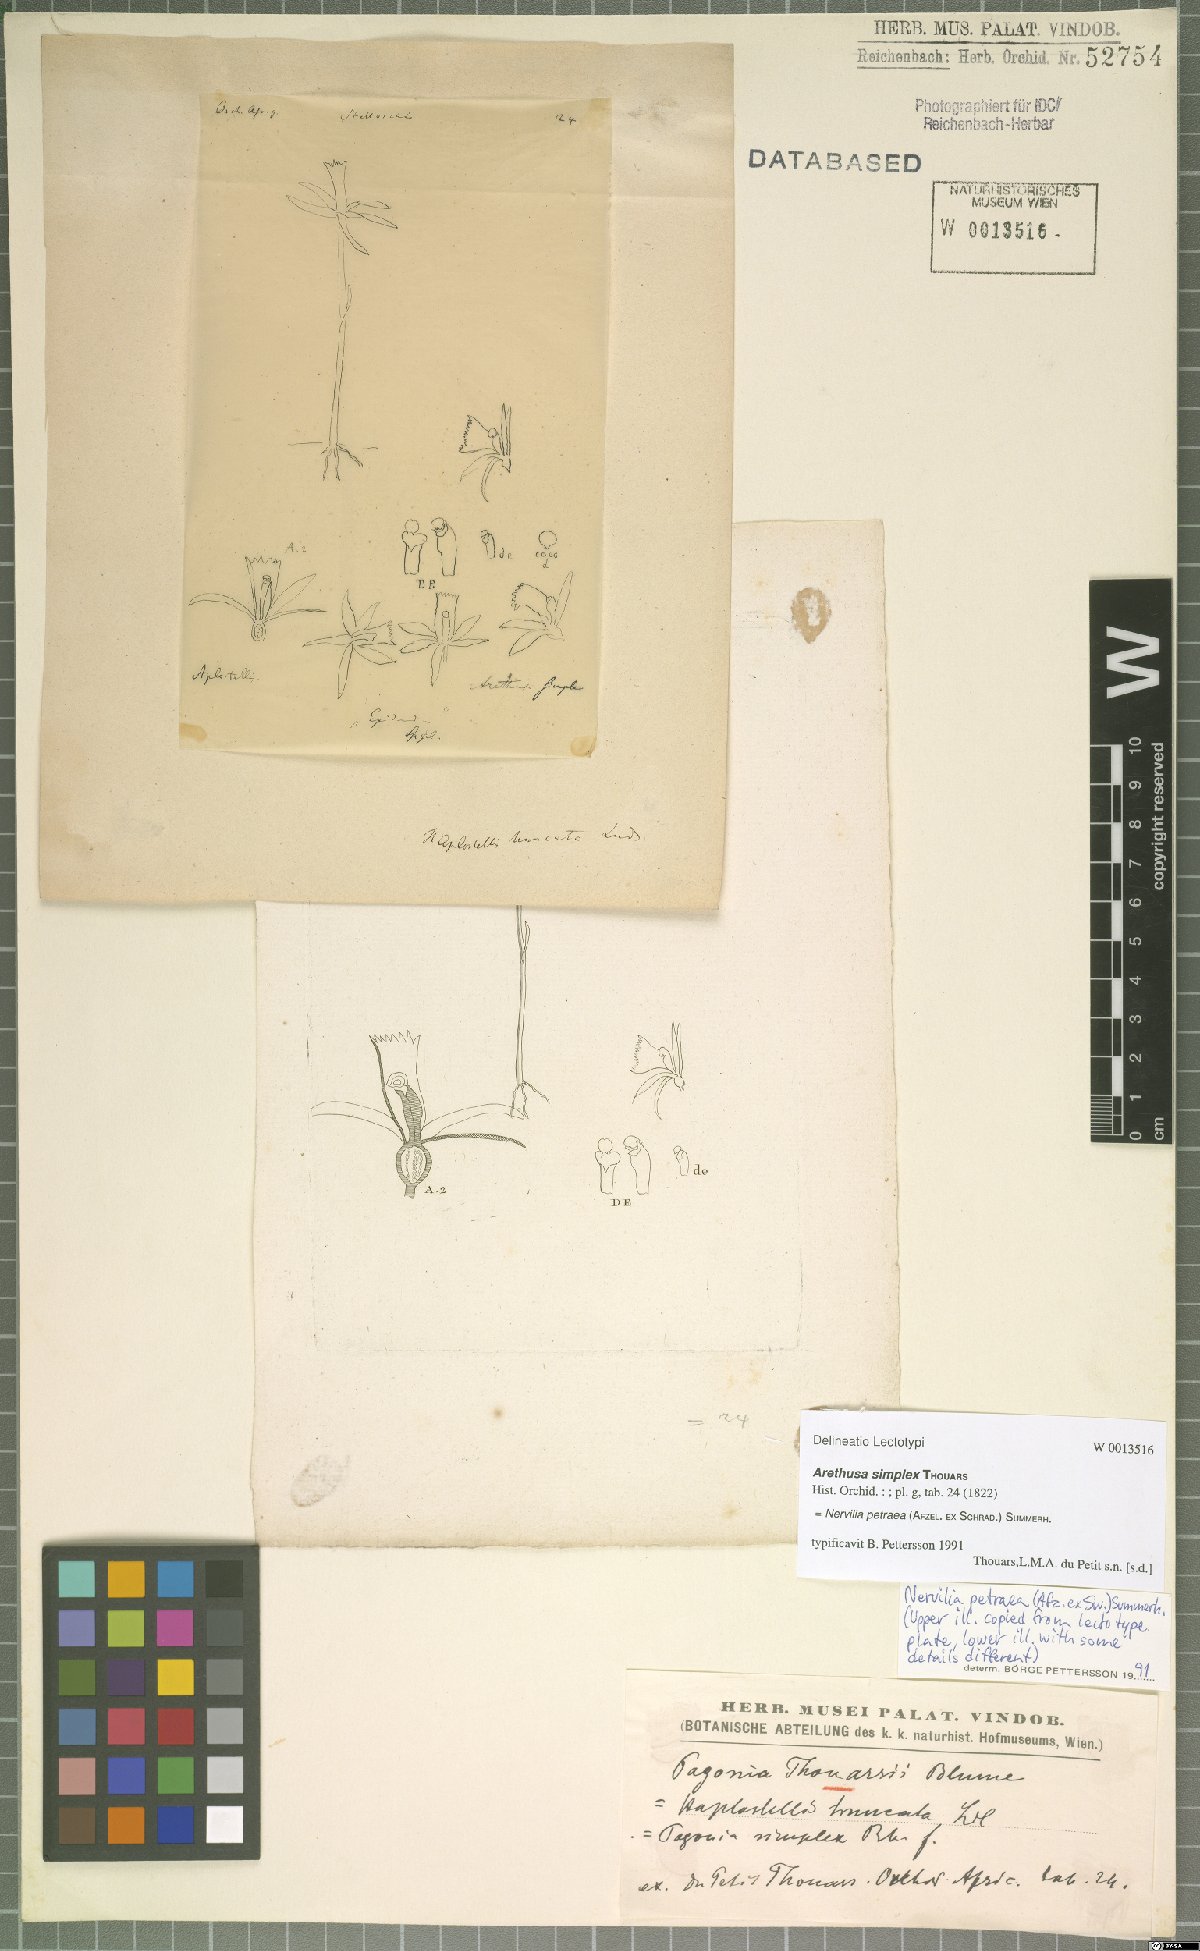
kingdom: Plantae
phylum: Tracheophyta
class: Liliopsida
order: Asparagales
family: Orchidaceae
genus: Nervilia
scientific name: Nervilia petraea
